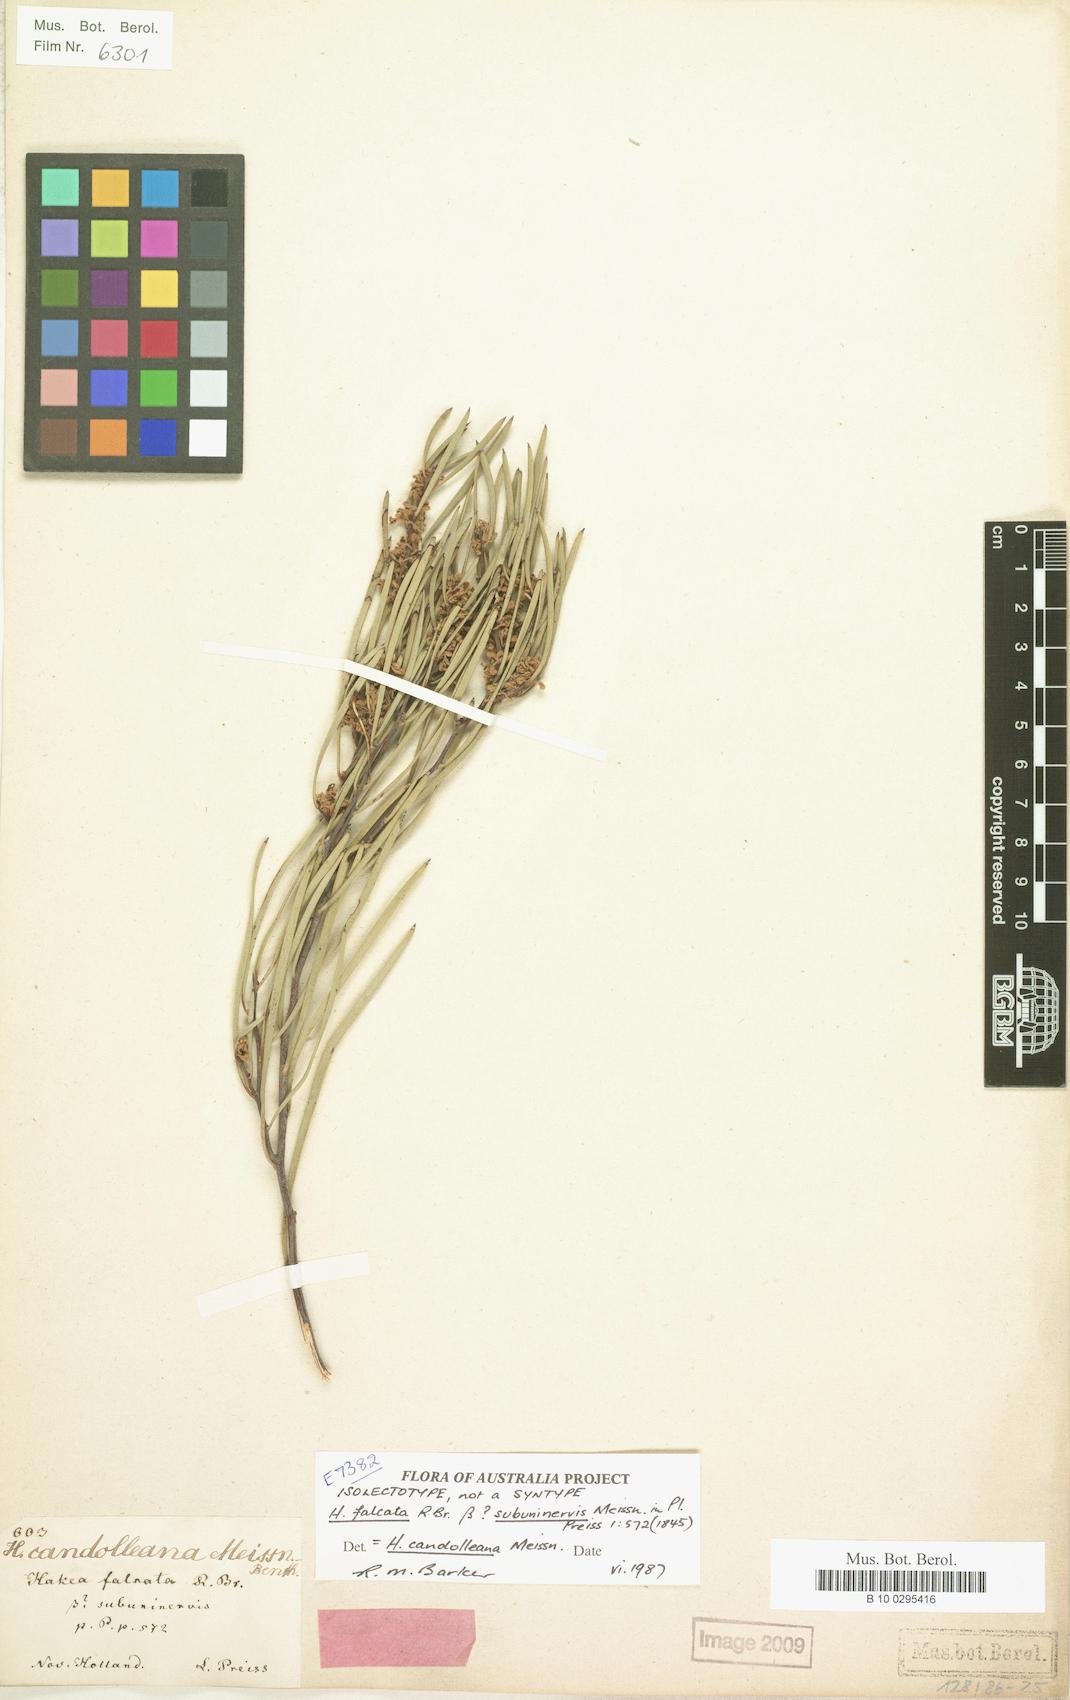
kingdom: Plantae
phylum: Tracheophyta
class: Magnoliopsida
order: Proteales
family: Proteaceae
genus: Hakea
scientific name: Hakea candolleana
